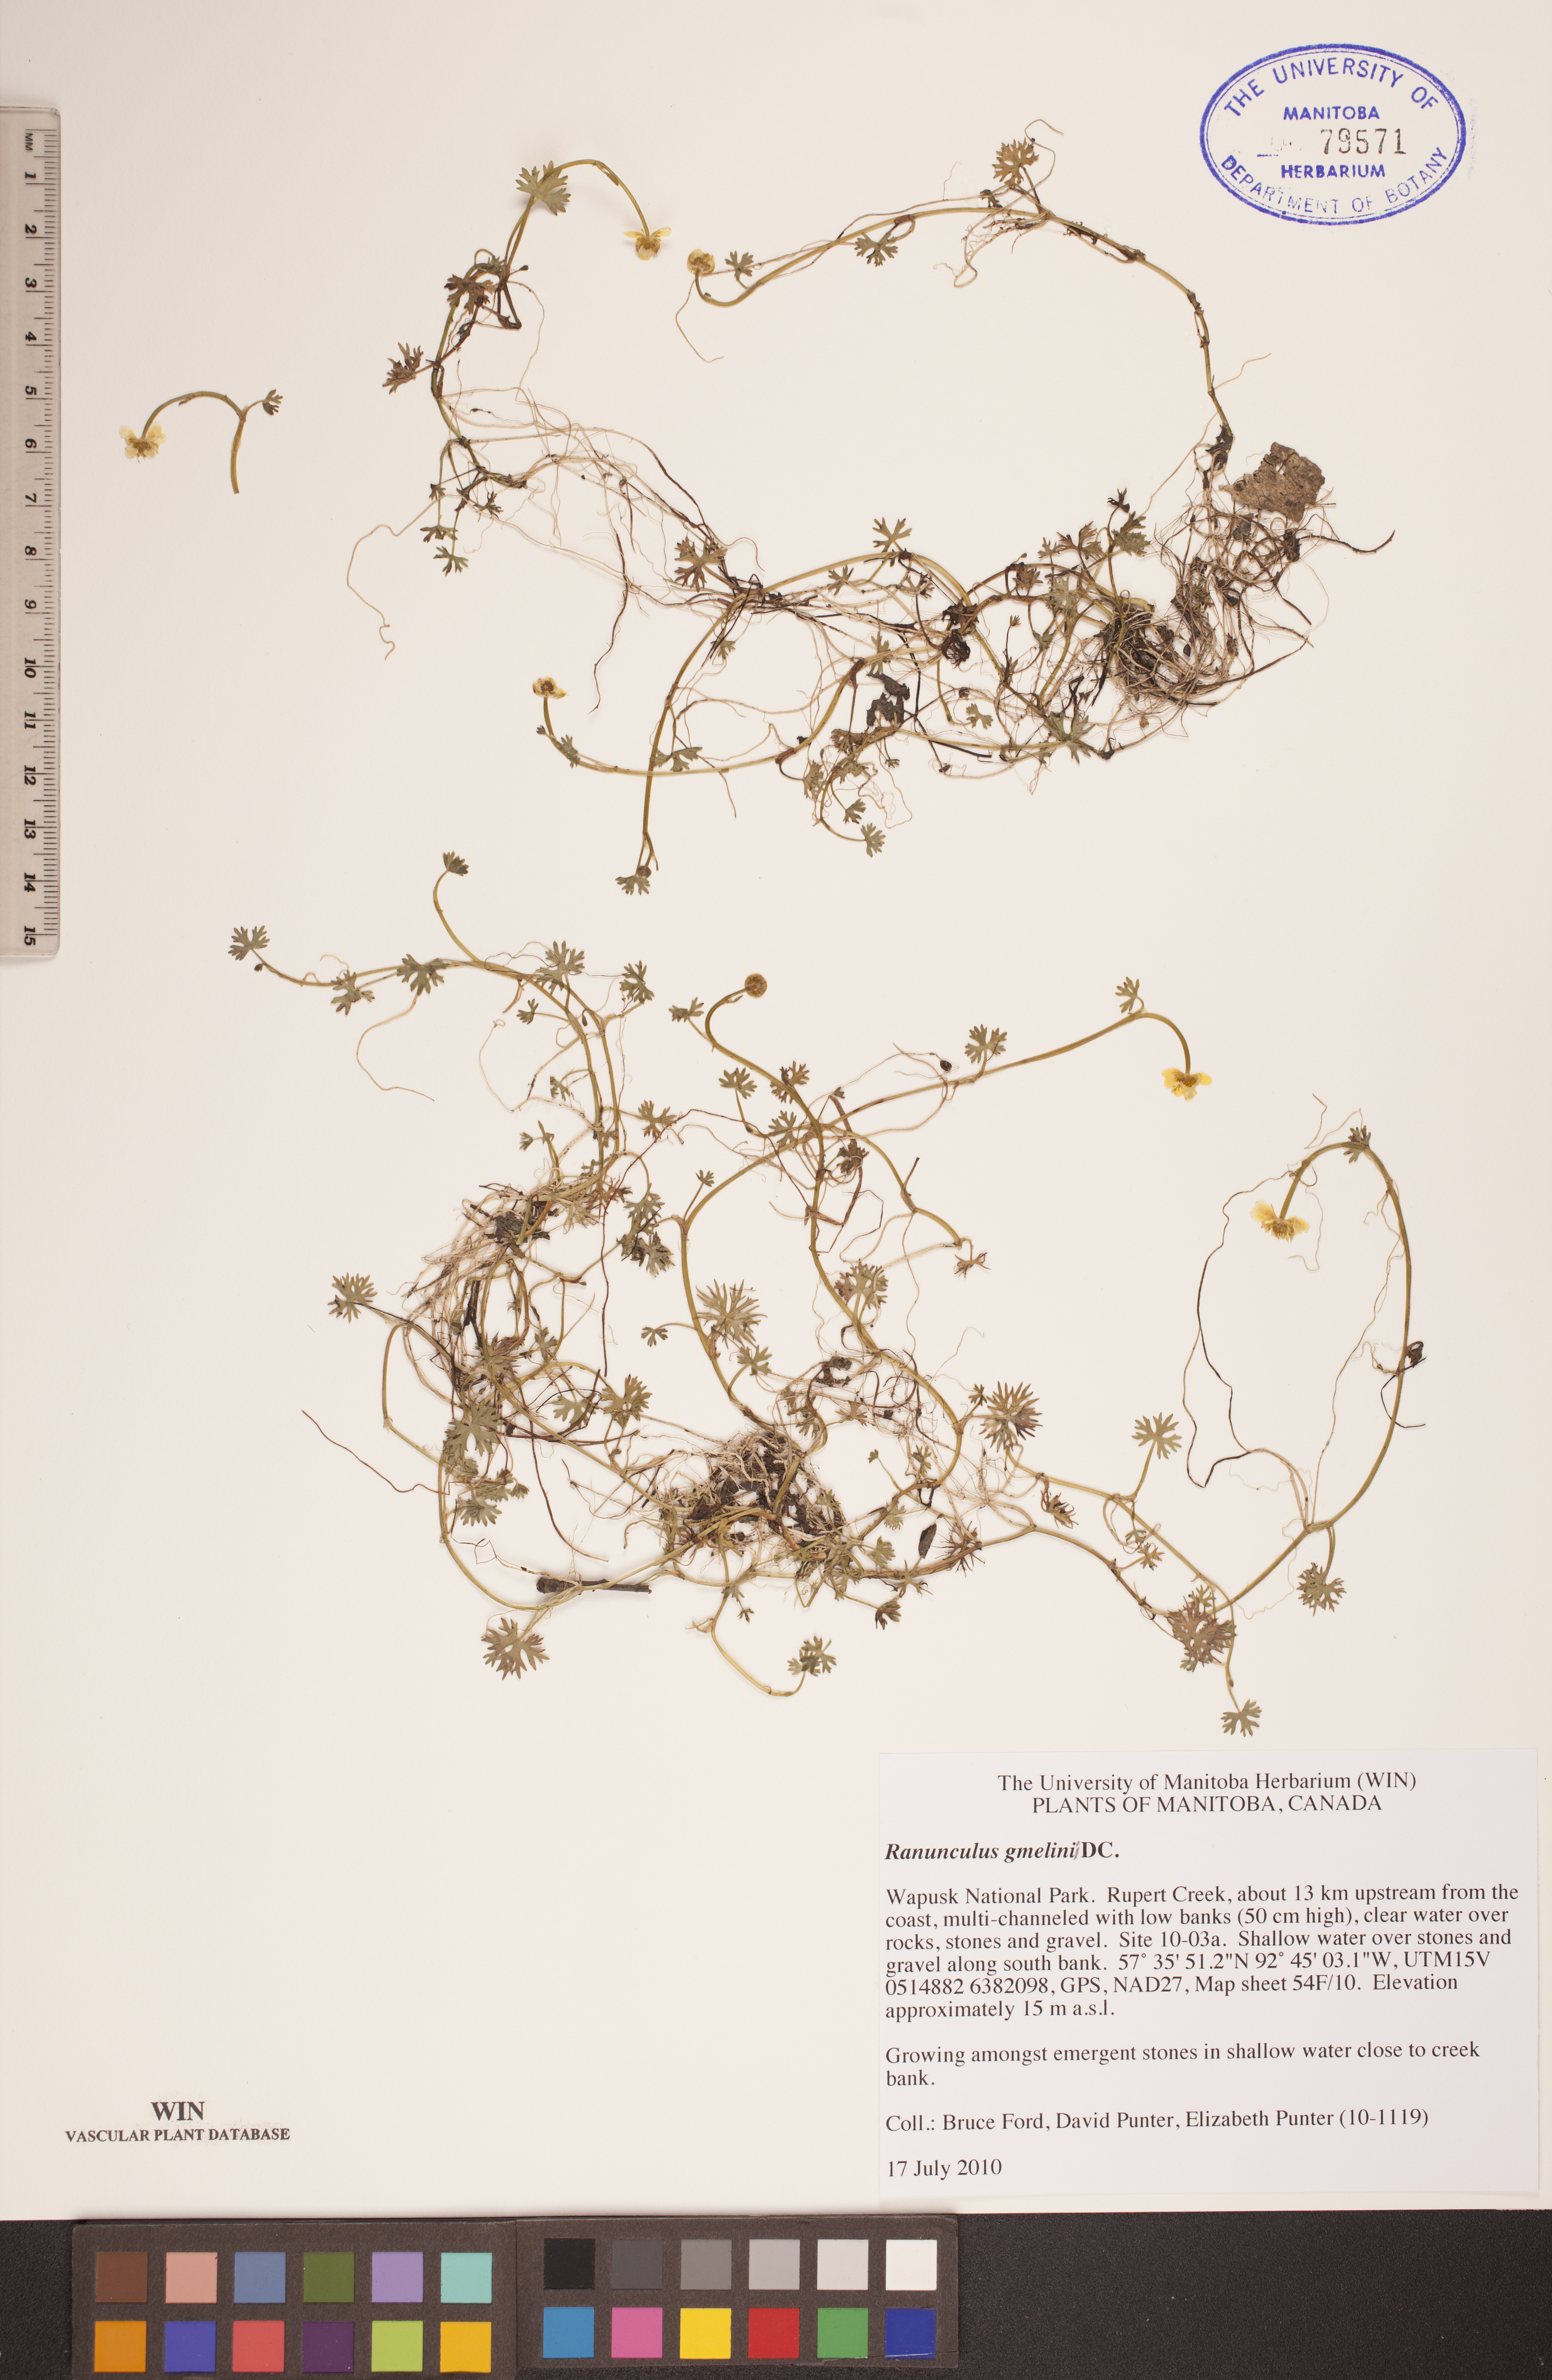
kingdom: Plantae
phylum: Tracheophyta
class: Magnoliopsida
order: Ranunculales
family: Ranunculaceae
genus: Ranunculus
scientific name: Ranunculus gmelinii
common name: Gmelin's buttercup
